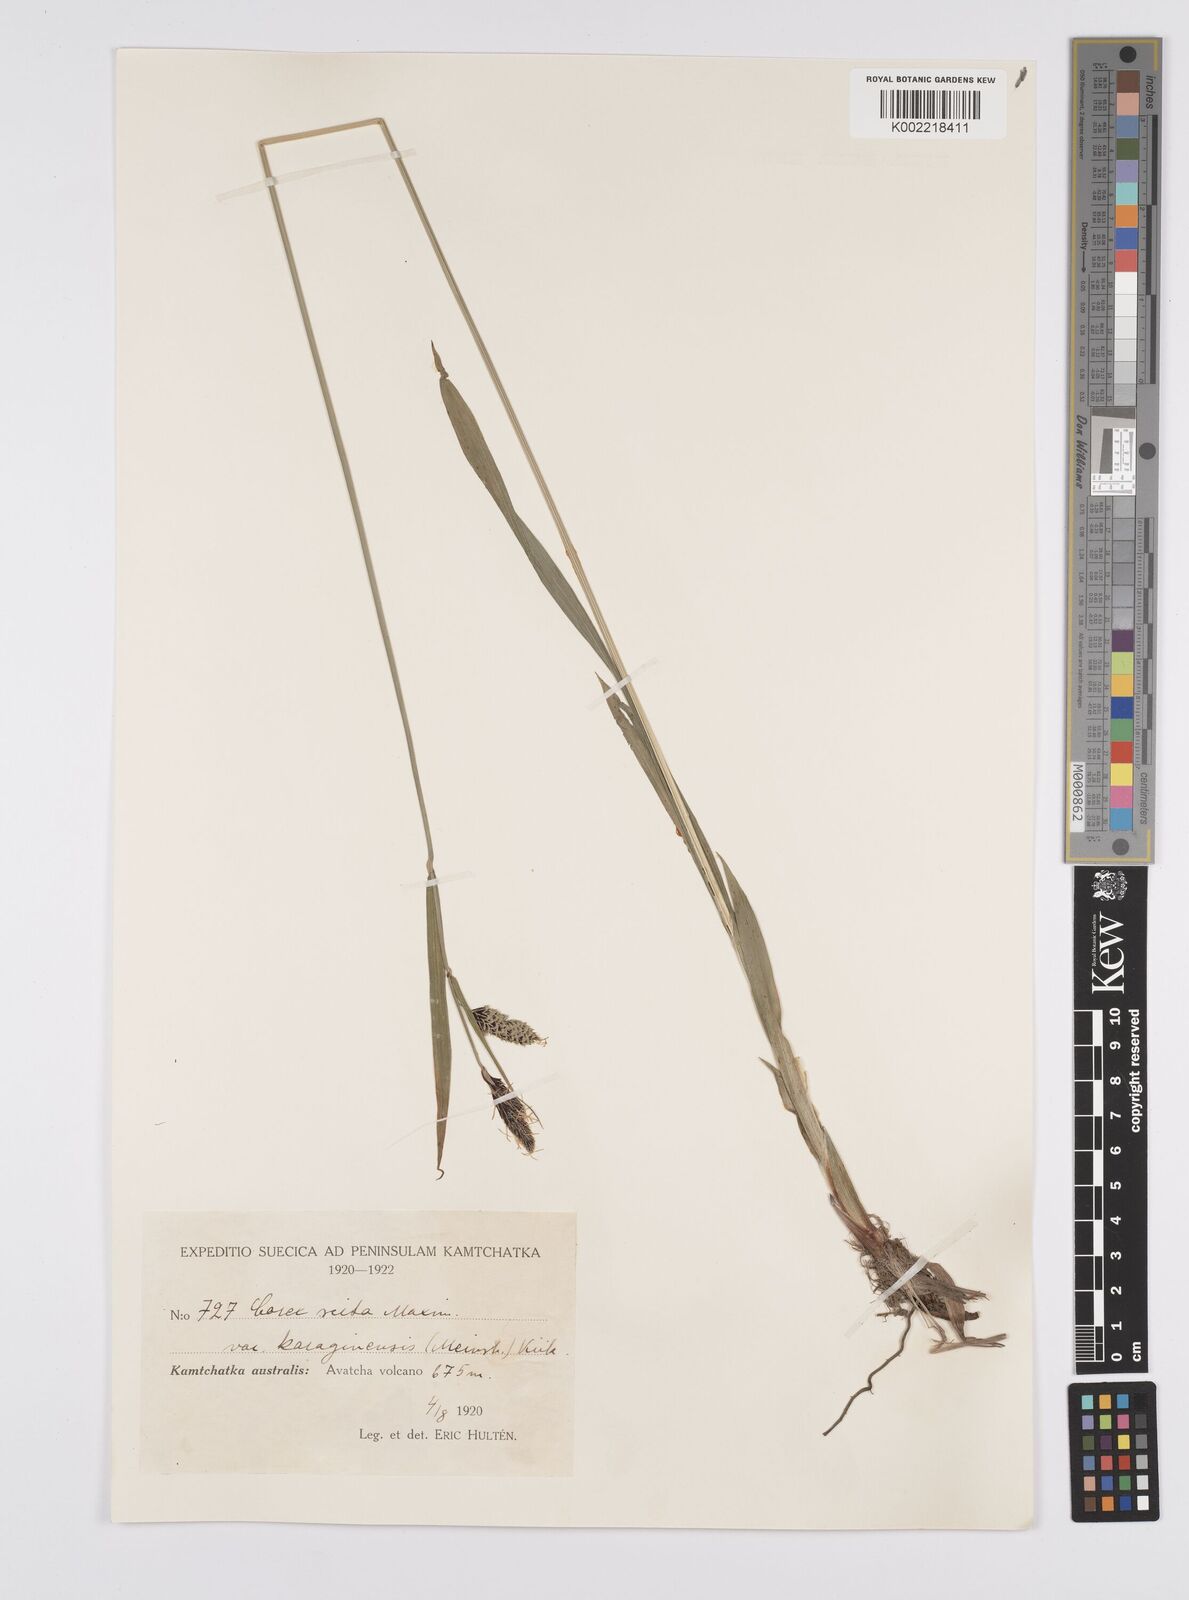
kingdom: Plantae
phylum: Tracheophyta
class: Liliopsida
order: Poales
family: Cyperaceae
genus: Carex
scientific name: Carex scita
